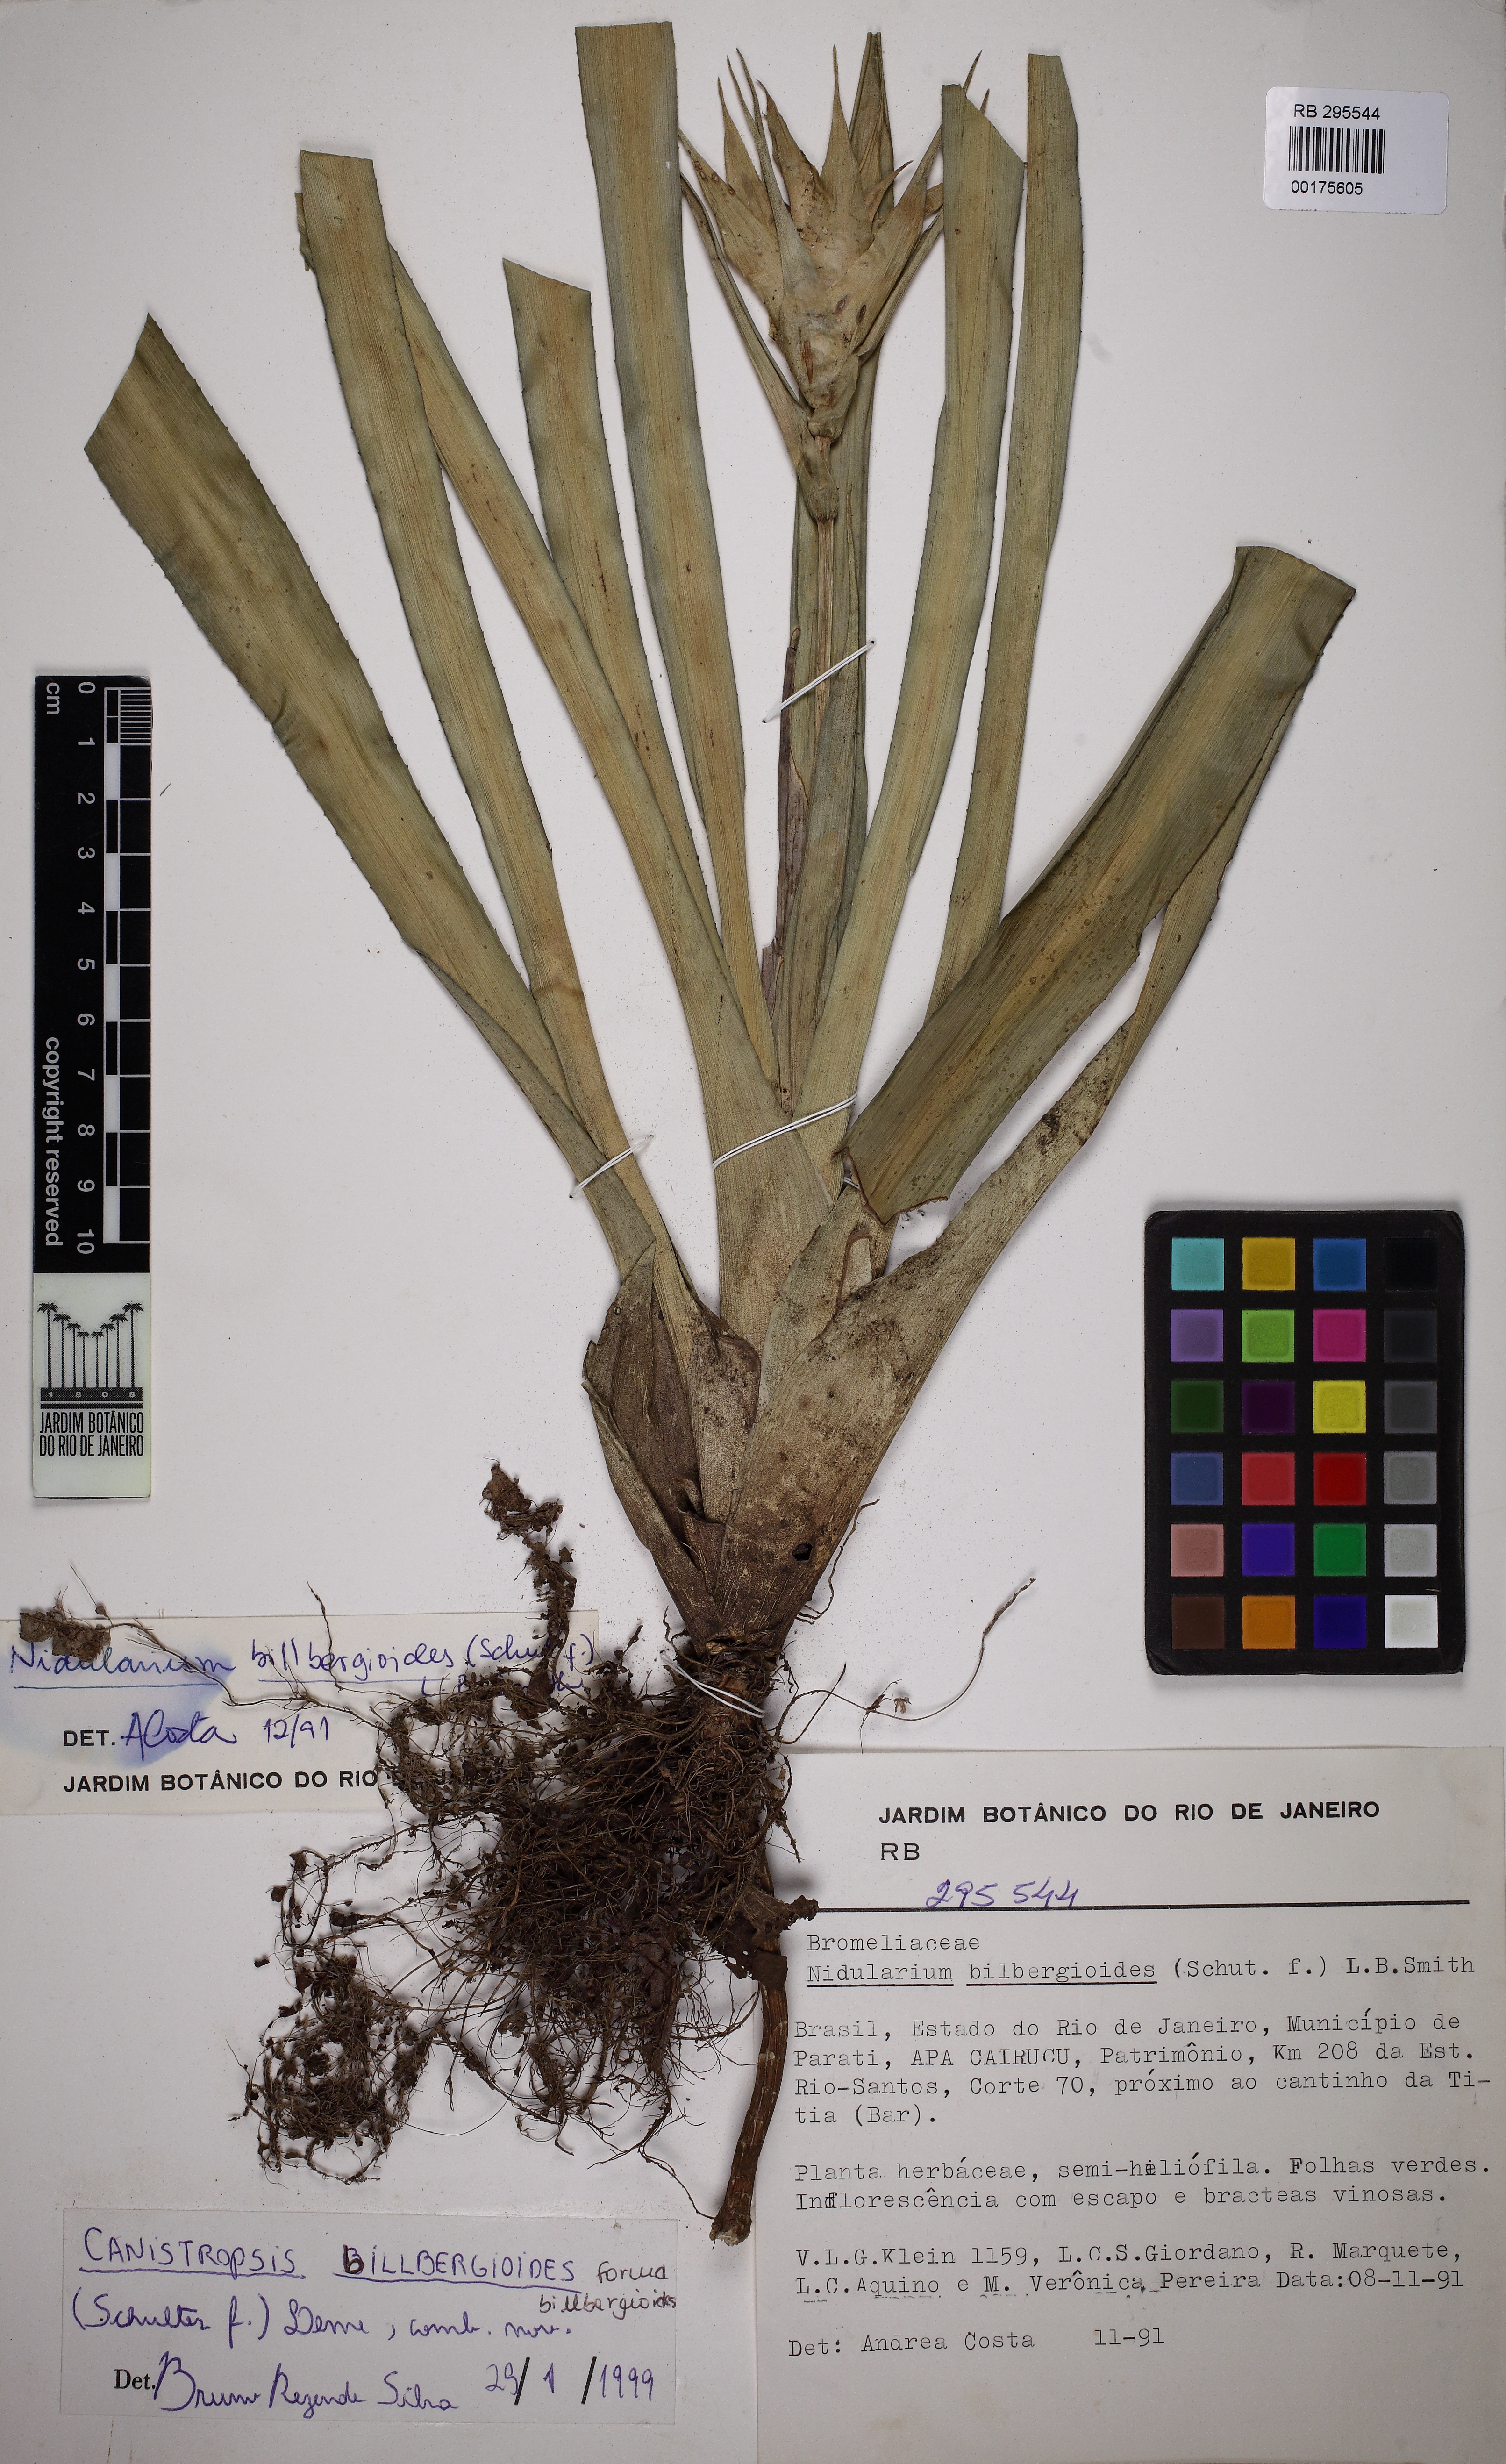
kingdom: Plantae
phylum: Tracheophyta
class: Liliopsida
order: Poales
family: Bromeliaceae
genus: Canistropsis
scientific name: Canistropsis billbergioides
